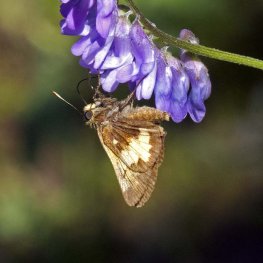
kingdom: Animalia
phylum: Arthropoda
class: Insecta
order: Lepidoptera
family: Hesperiidae
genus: Lon
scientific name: Lon hobomok
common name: Hobomok Skipper
